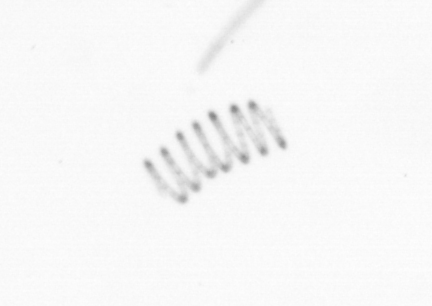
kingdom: Chromista
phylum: Ochrophyta
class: Bacillariophyceae
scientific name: Bacillariophyceae
